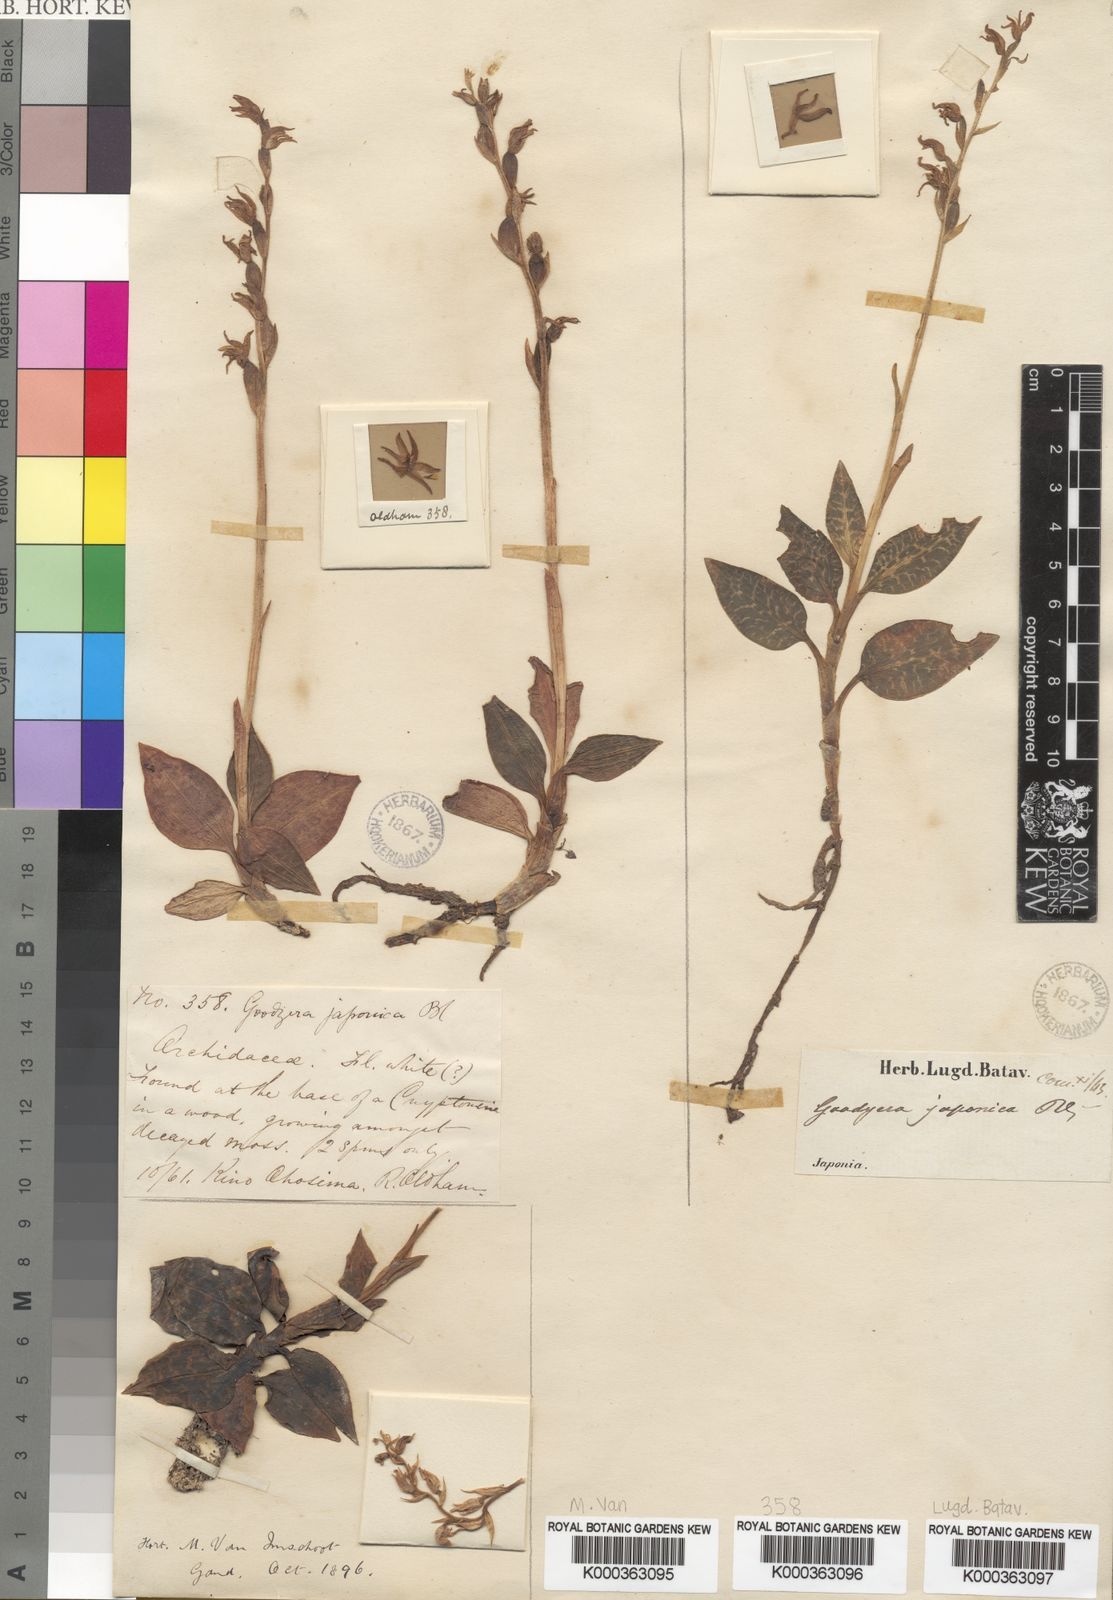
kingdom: Plantae
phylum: Tracheophyta
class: Liliopsida
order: Asparagales
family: Orchidaceae
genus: Goodyera
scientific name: Goodyera schlechtendaliana
